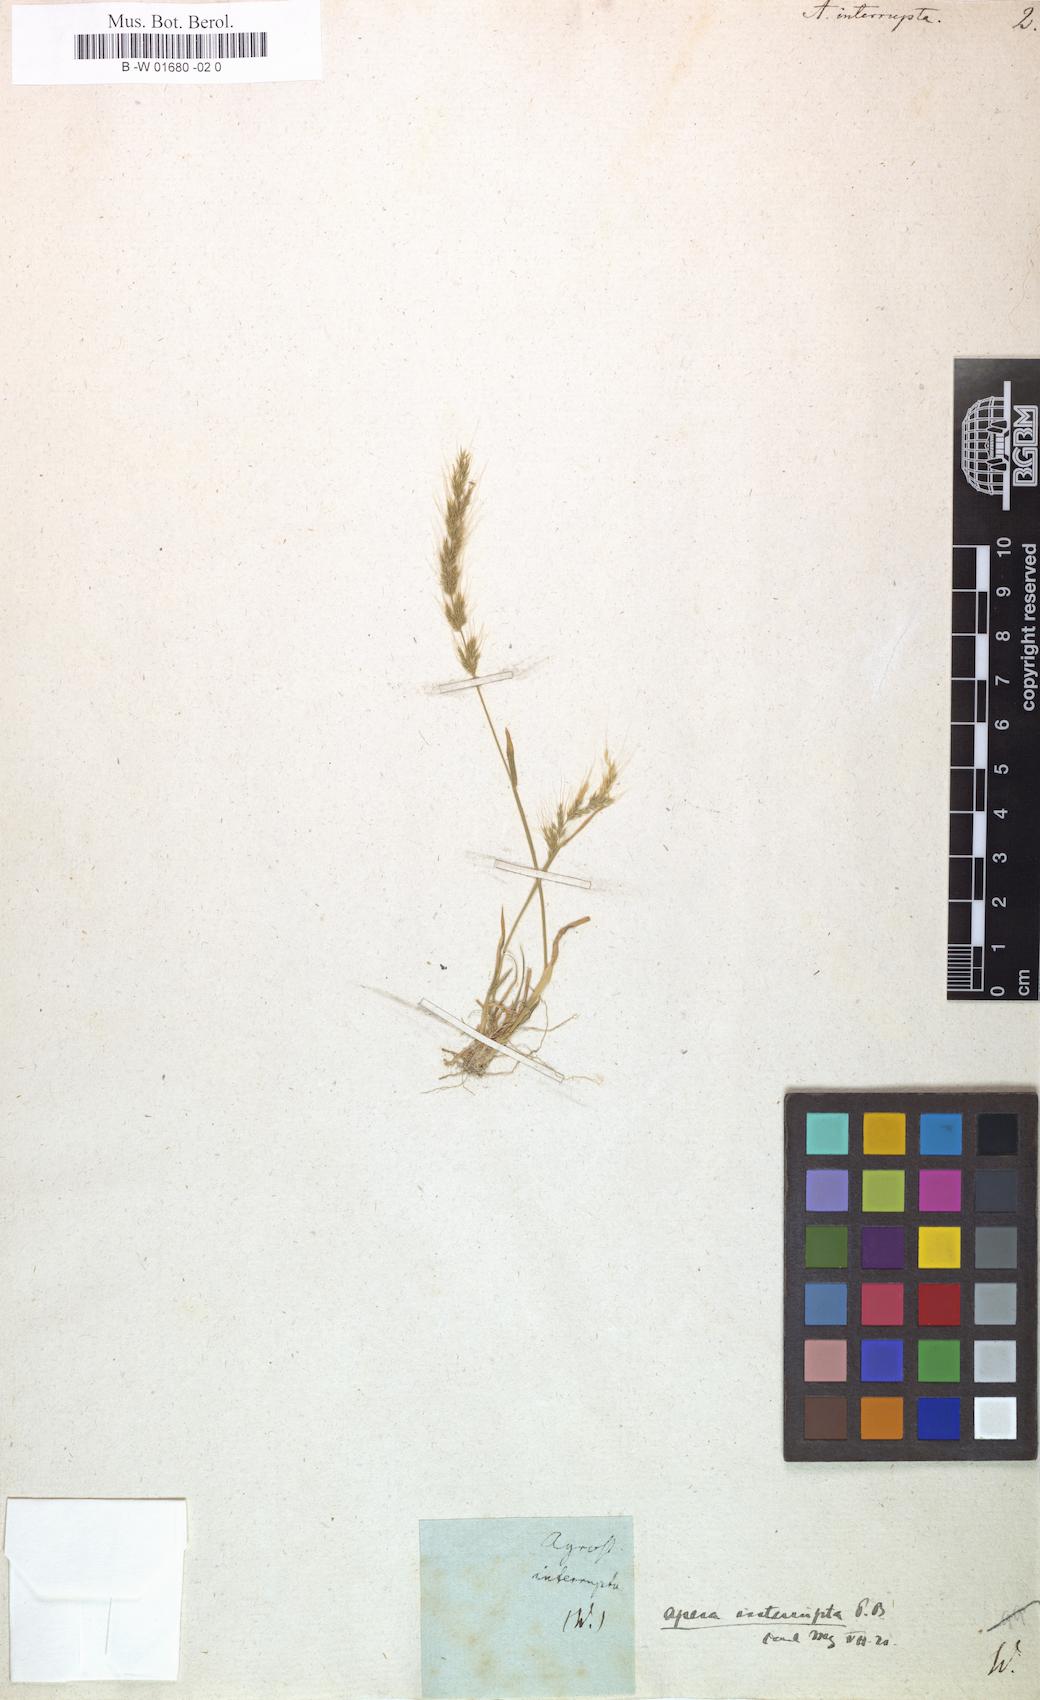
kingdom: Plantae
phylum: Tracheophyta
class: Liliopsida
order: Poales
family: Poaceae
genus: Apera
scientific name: Apera interrupta
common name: Dense silky-bent
